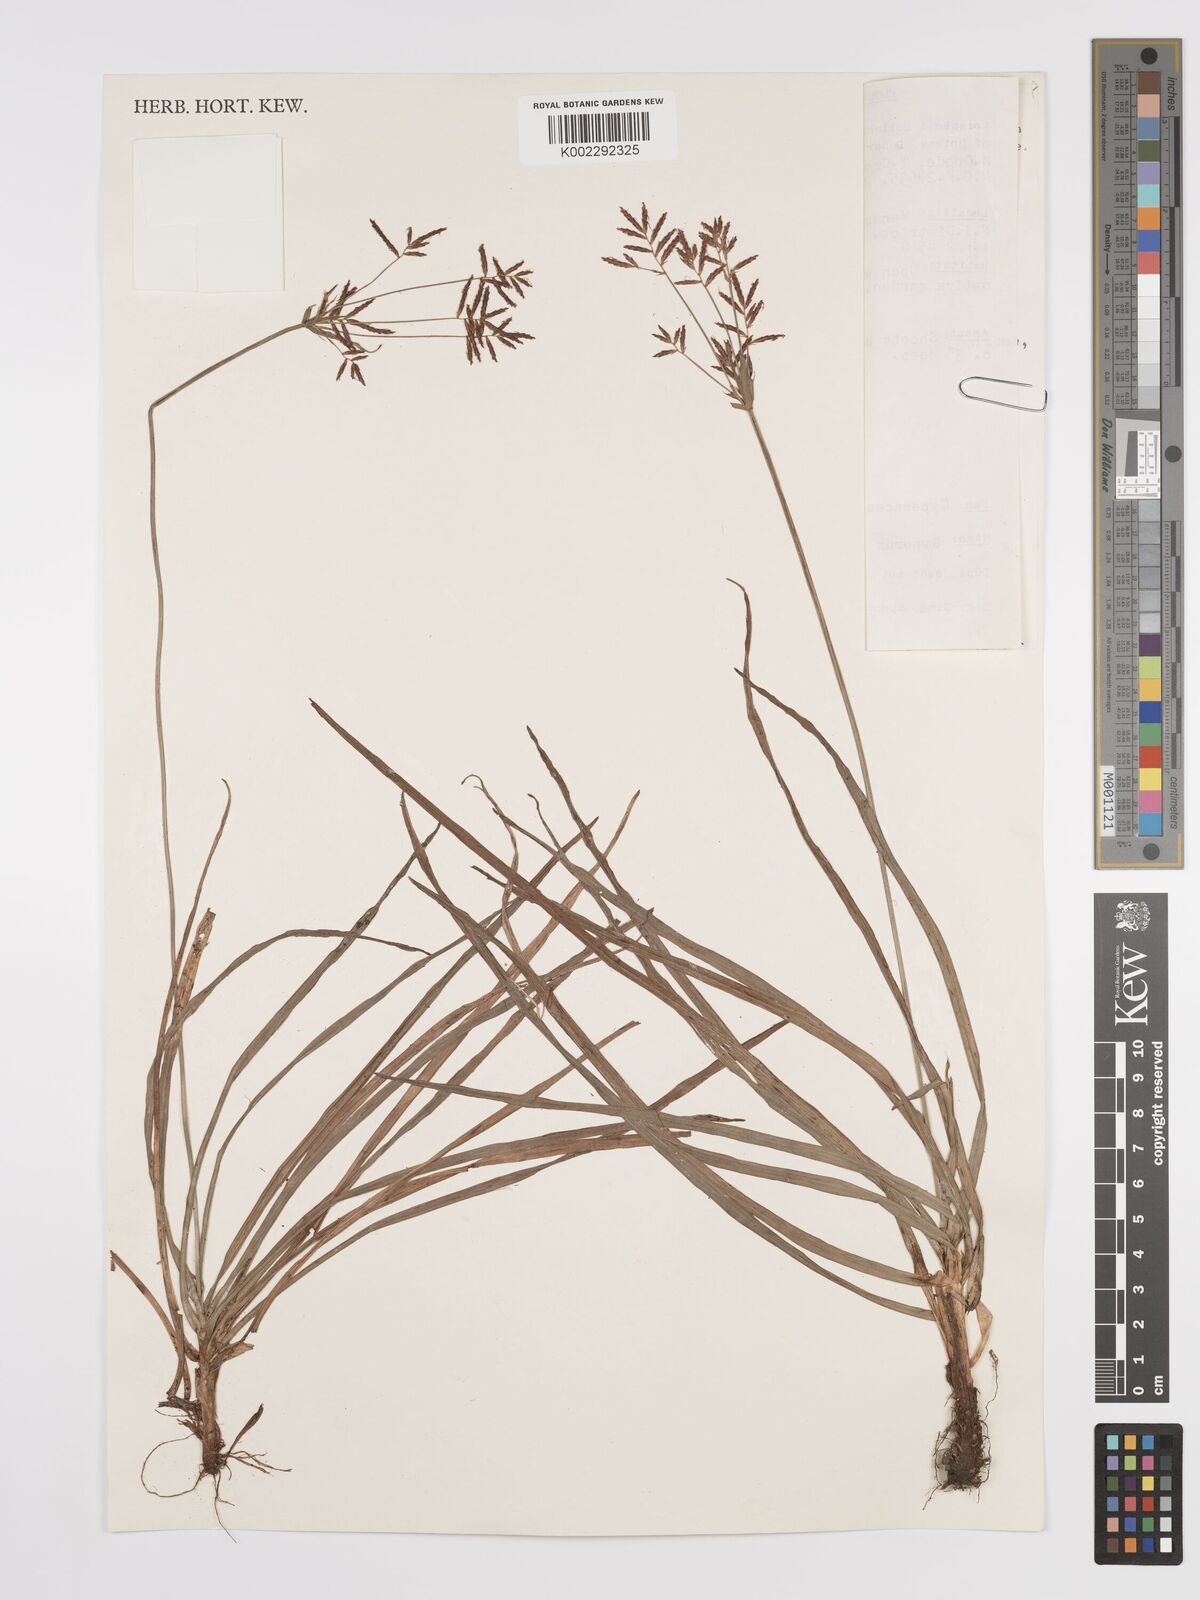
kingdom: Plantae
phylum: Tracheophyta
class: Liliopsida
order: Poales
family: Cyperaceae
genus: Cyperus
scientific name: Cyperus rotundus
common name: Nutgrass
